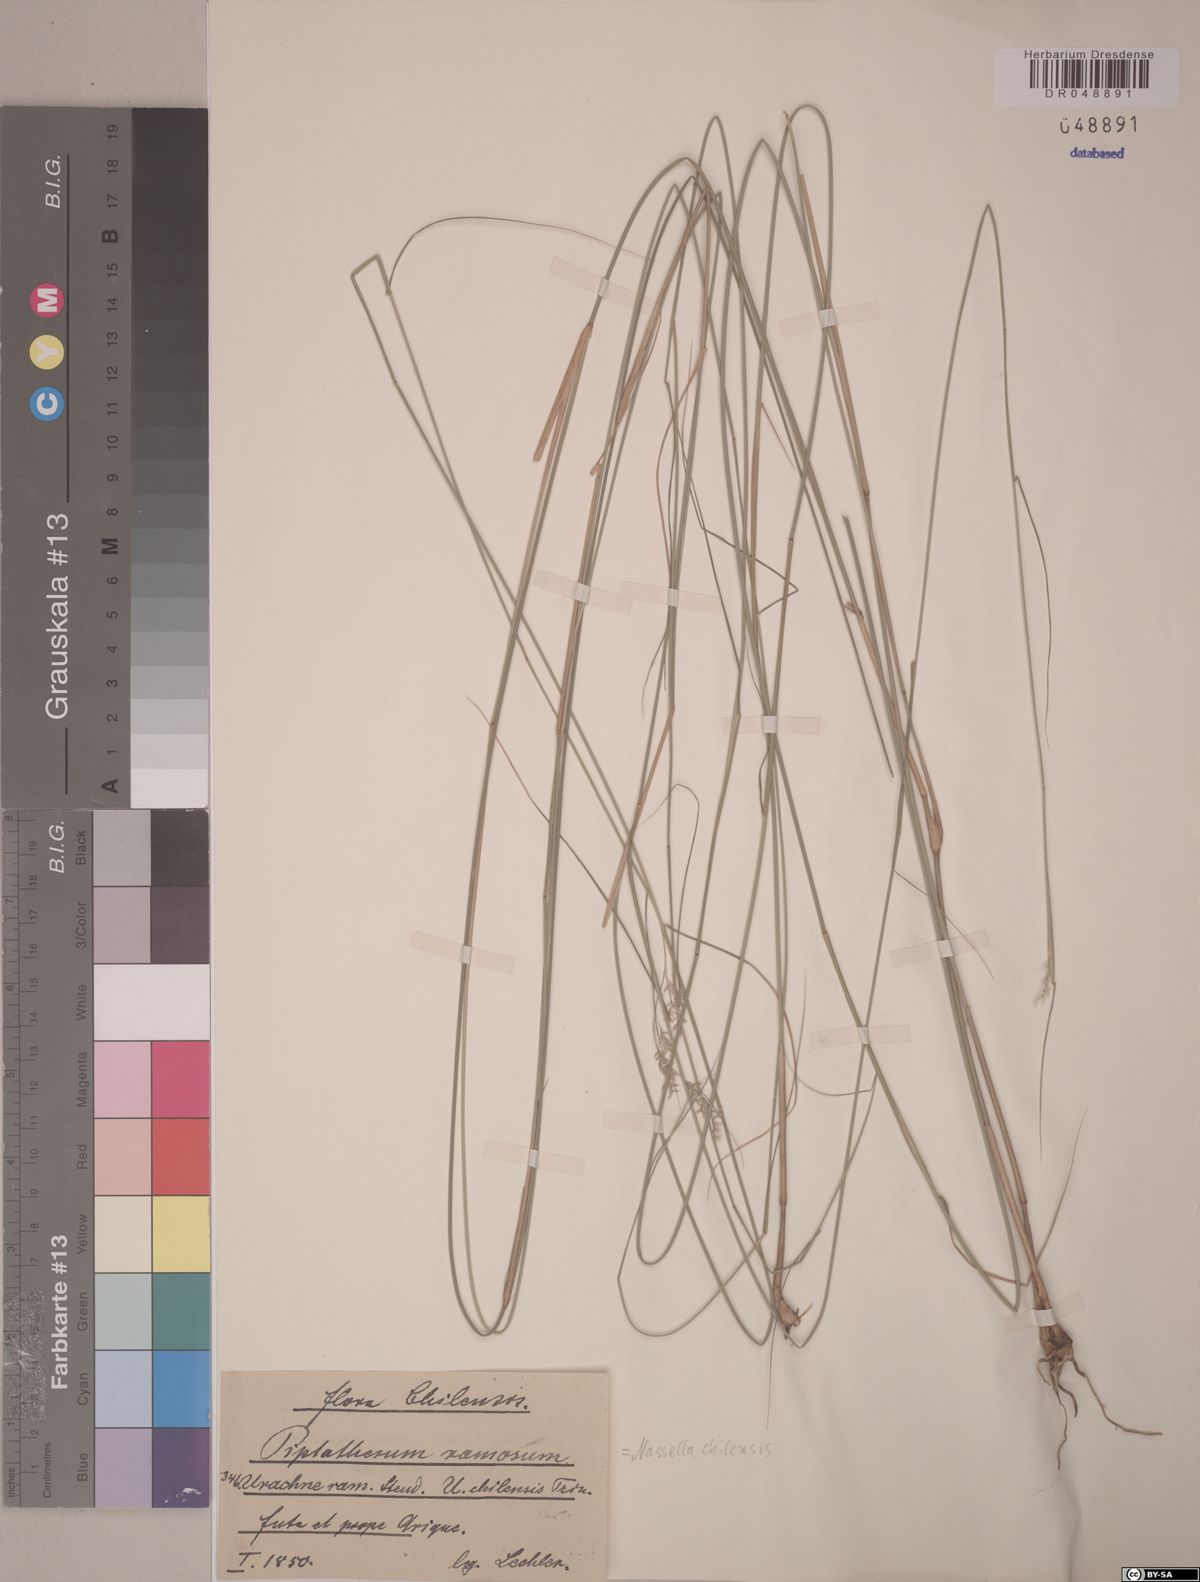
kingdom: Plantae
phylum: Tracheophyta
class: Liliopsida
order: Poales
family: Poaceae
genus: Nassella
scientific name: Nassella chilensis
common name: Chilean needlegrass
